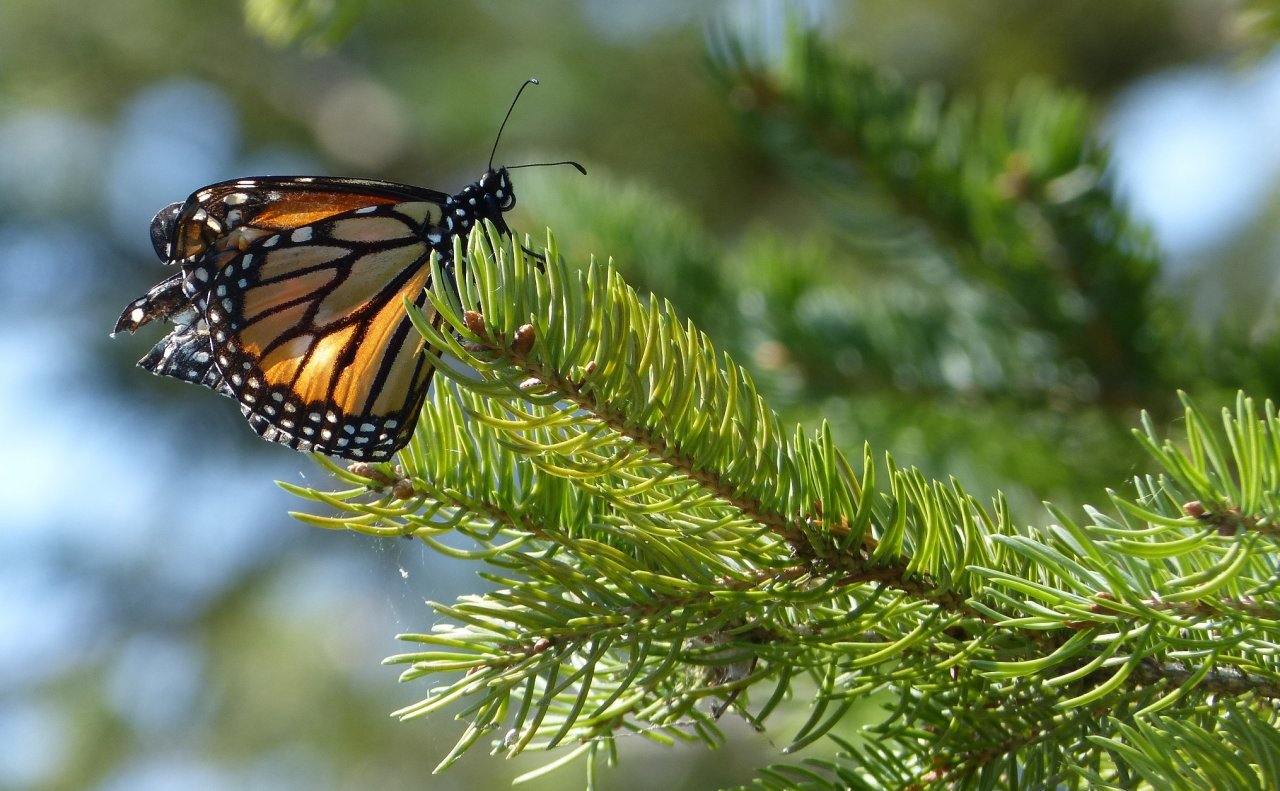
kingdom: Animalia
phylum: Arthropoda
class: Insecta
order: Lepidoptera
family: Nymphalidae
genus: Danaus
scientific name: Danaus plexippus
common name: Monarch
